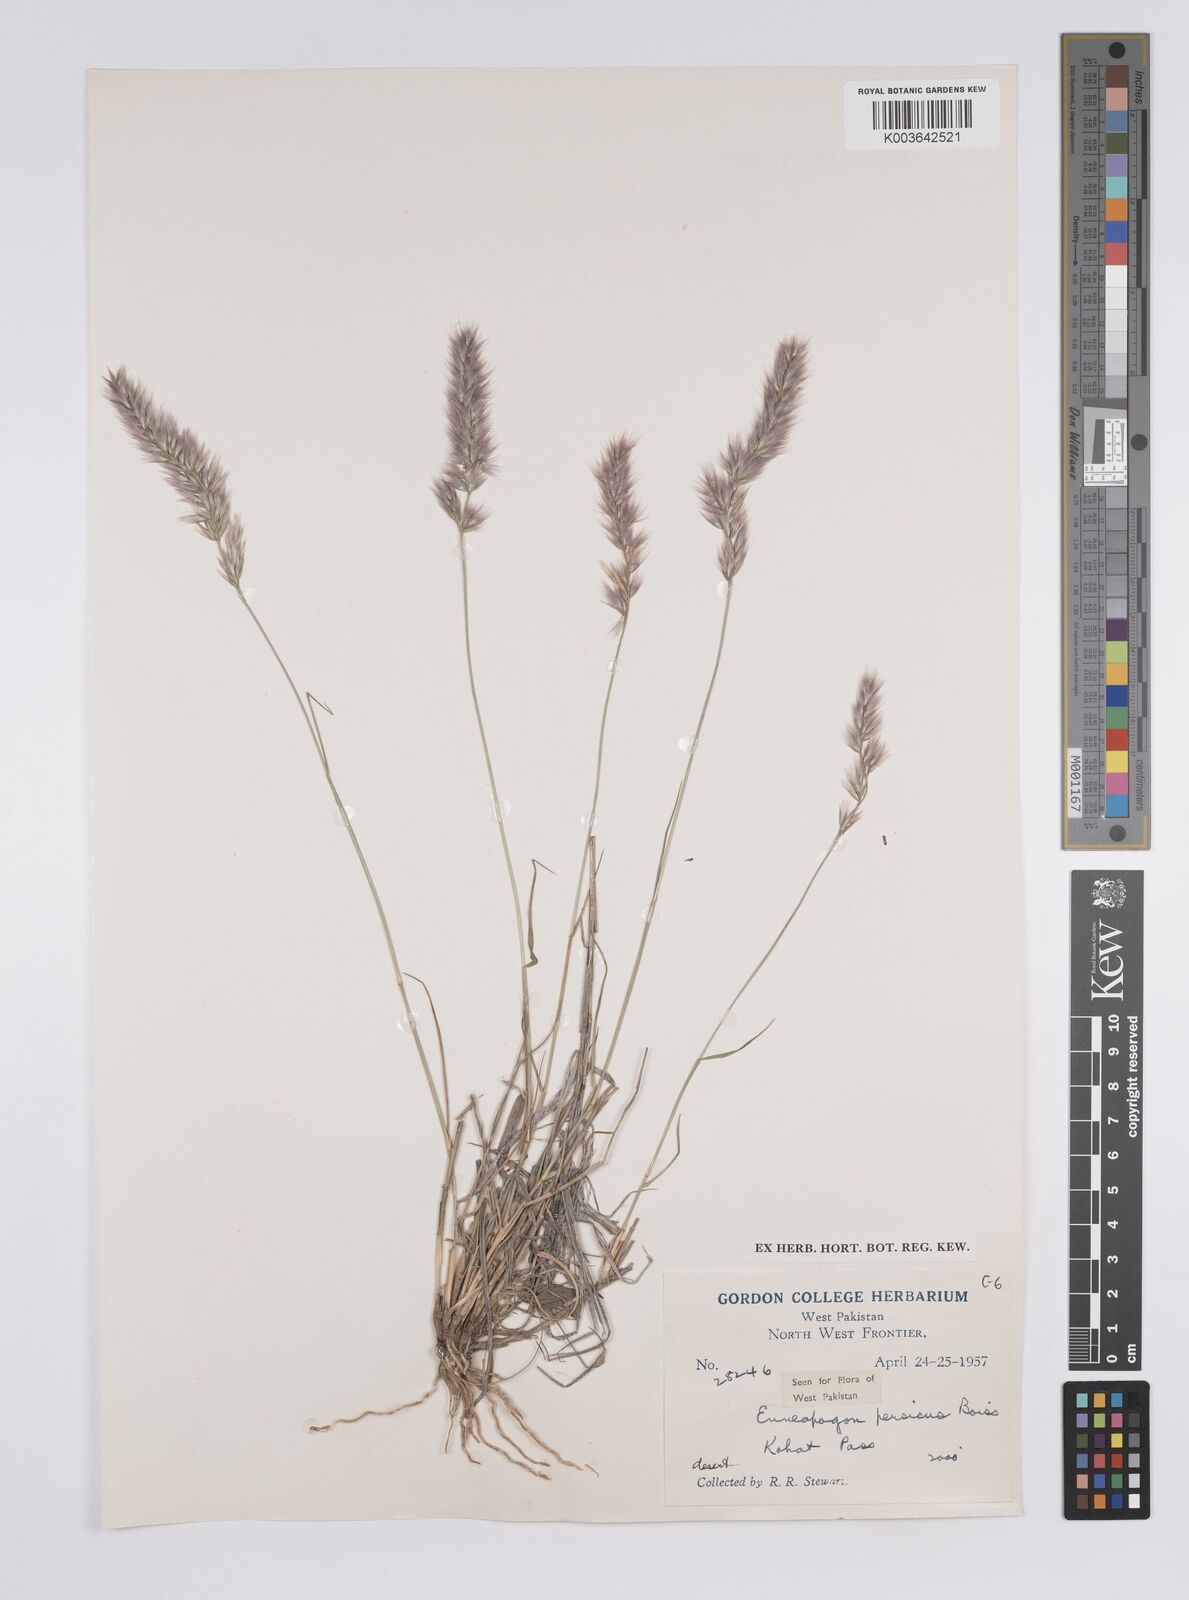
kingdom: Plantae
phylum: Tracheophyta
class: Liliopsida
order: Poales
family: Poaceae
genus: Enneapogon
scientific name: Enneapogon persicus
